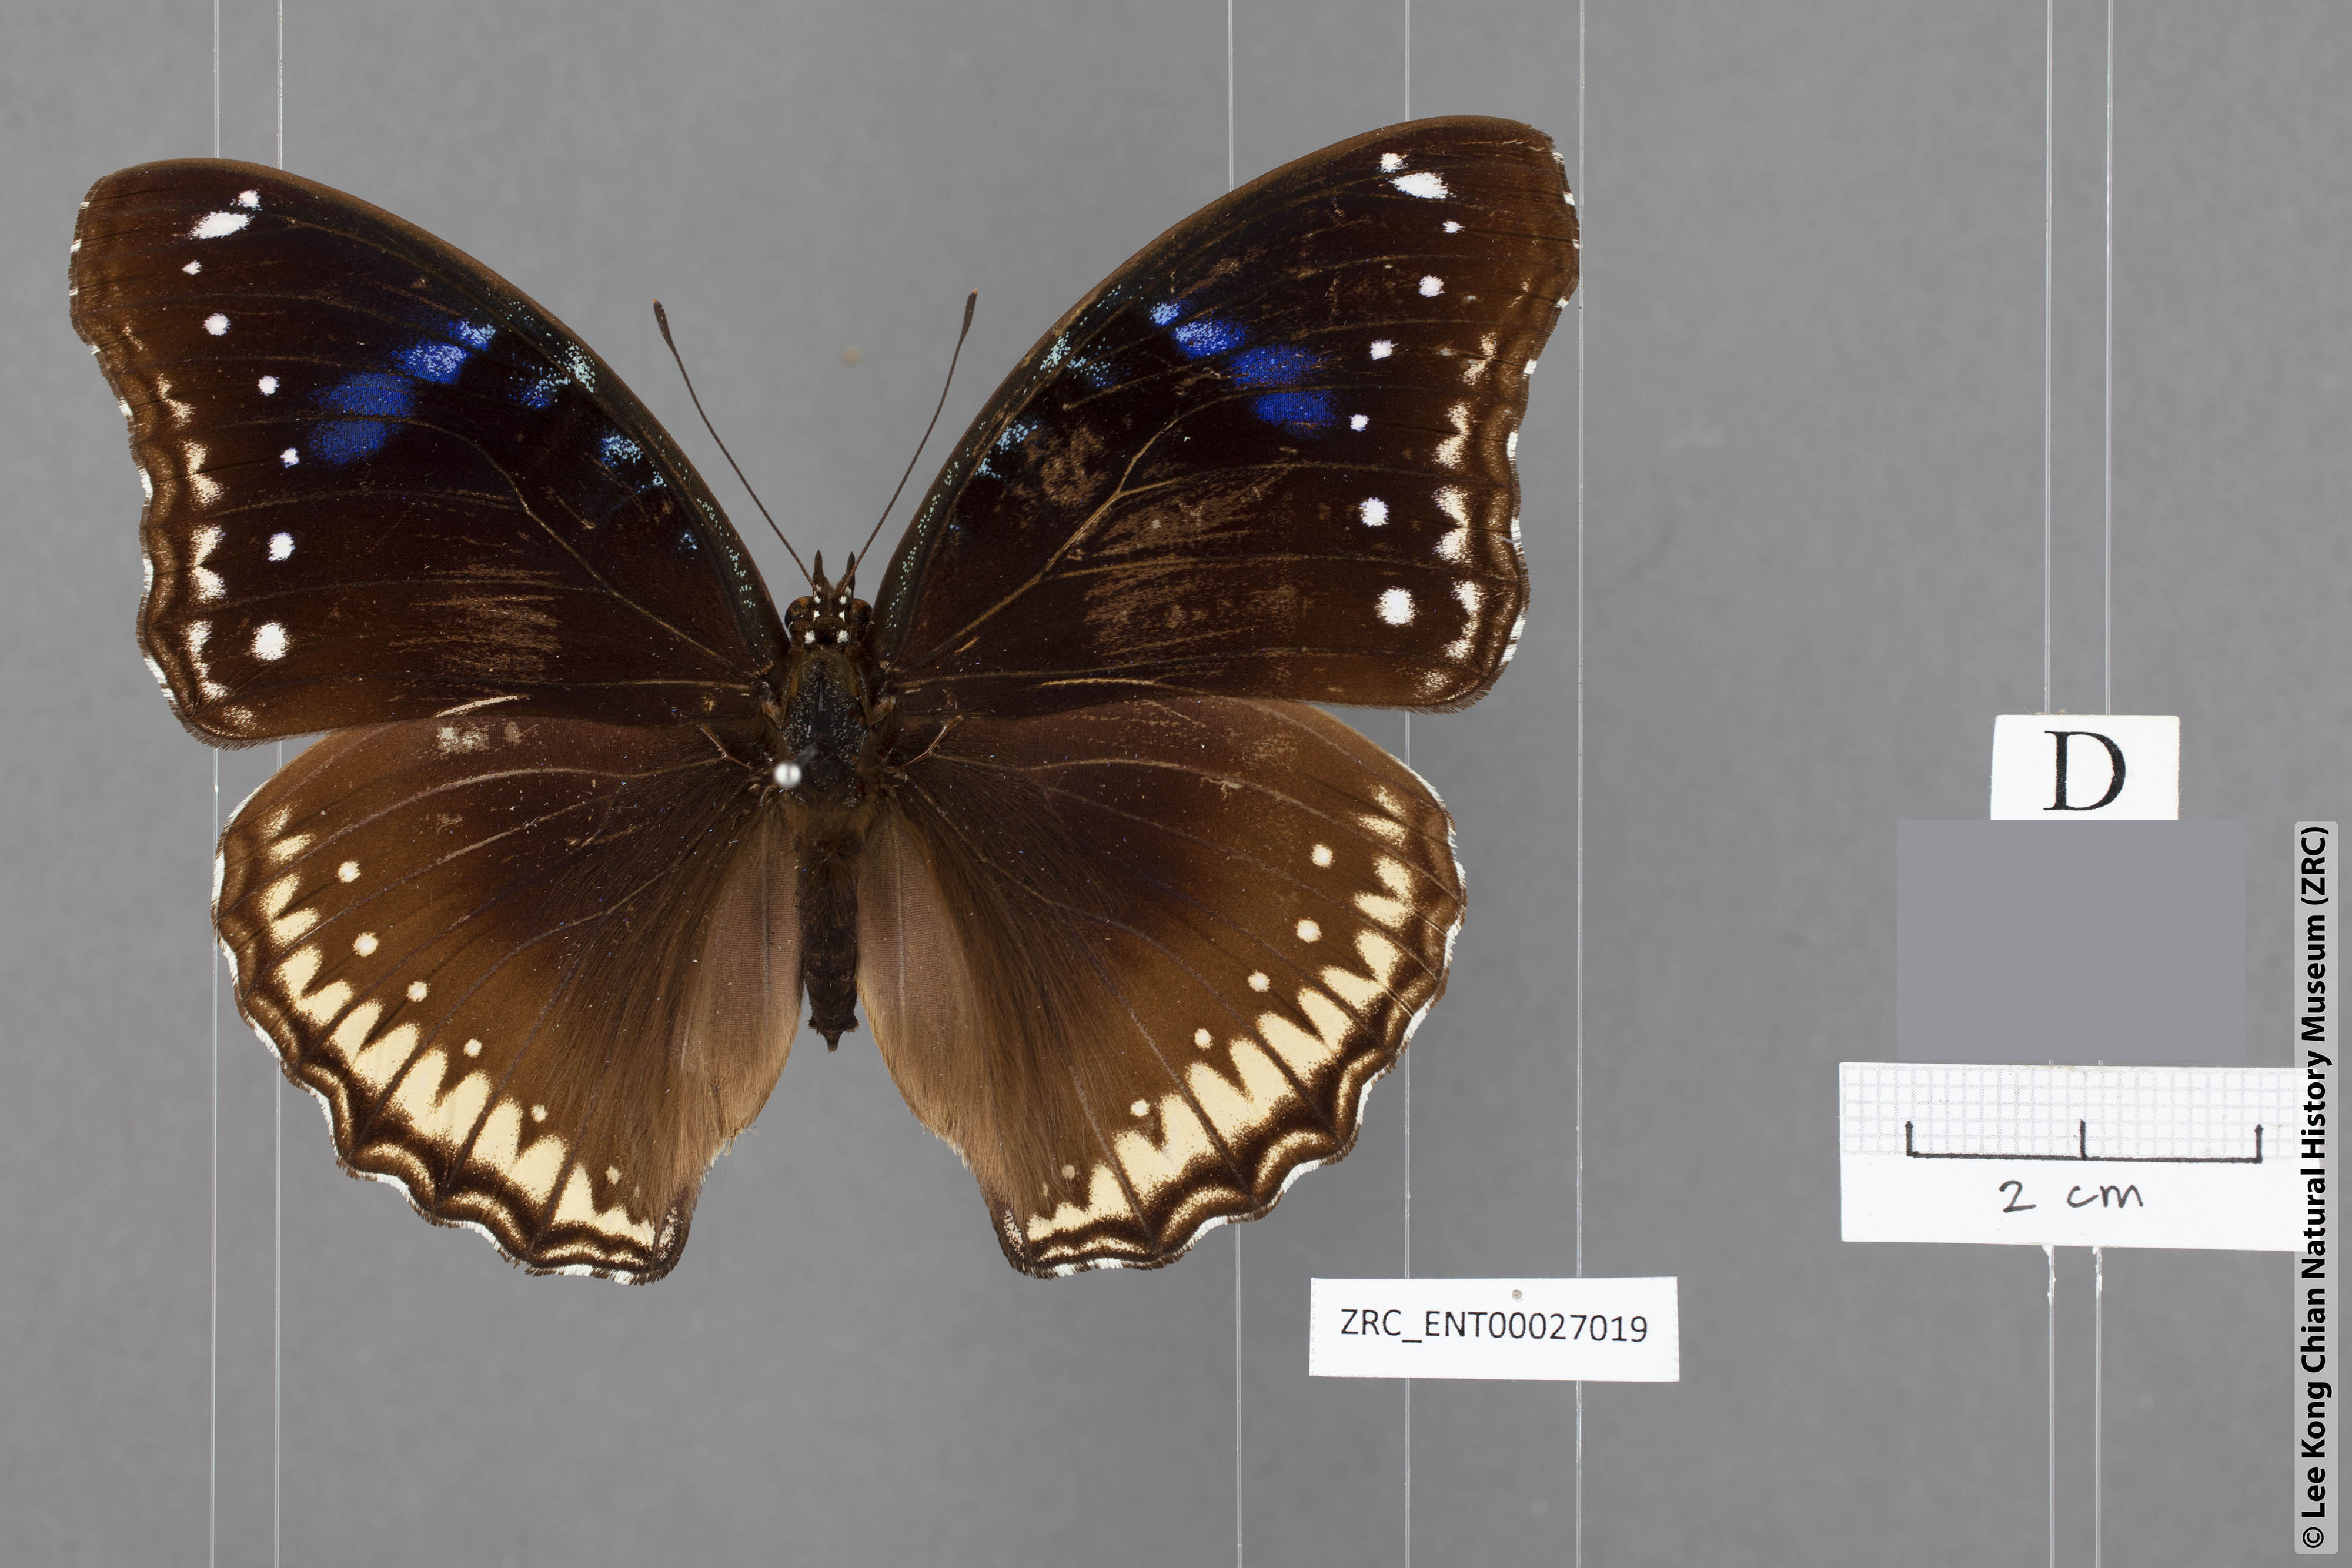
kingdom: Animalia
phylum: Arthropoda
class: Insecta
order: Lepidoptera
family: Nymphalidae
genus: Hypolimnas
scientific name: Hypolimnas bolina
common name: Great eggfly
